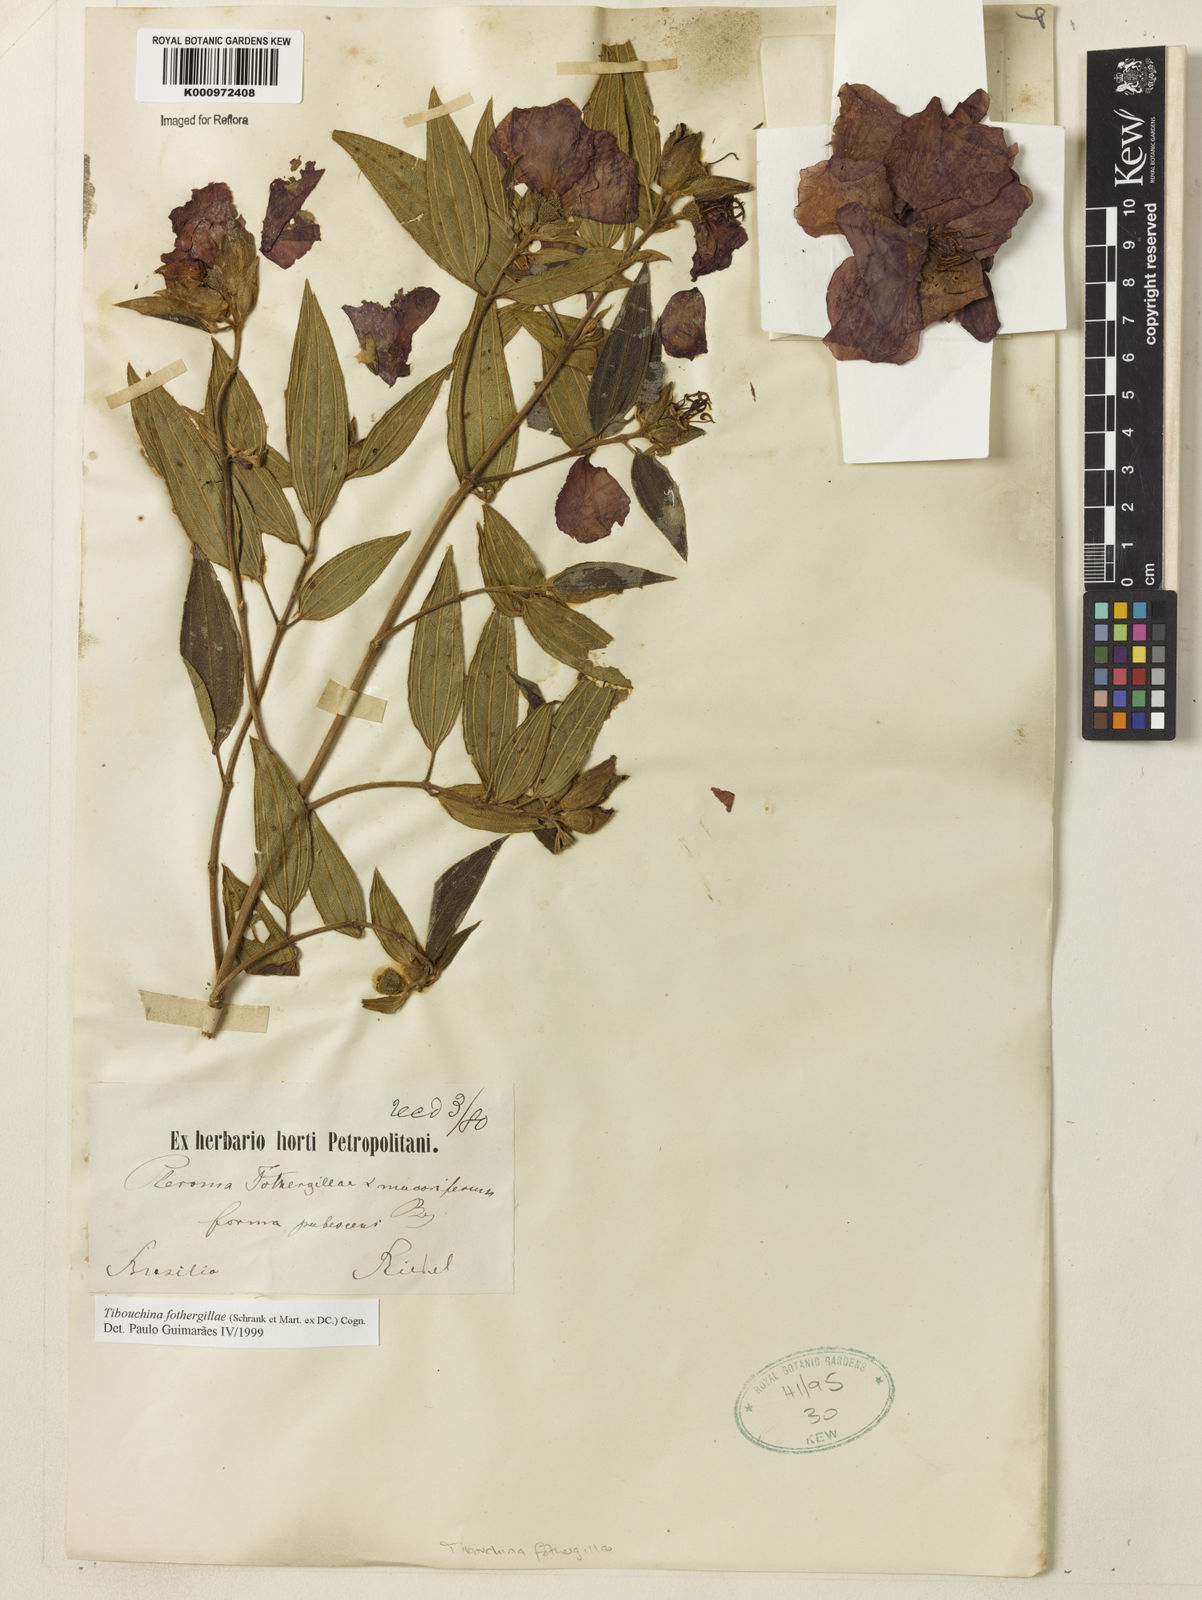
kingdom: Plantae
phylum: Tracheophyta
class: Magnoliopsida
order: Myrtales
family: Melastomataceae
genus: Pleroma
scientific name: Pleroma fothergillae
